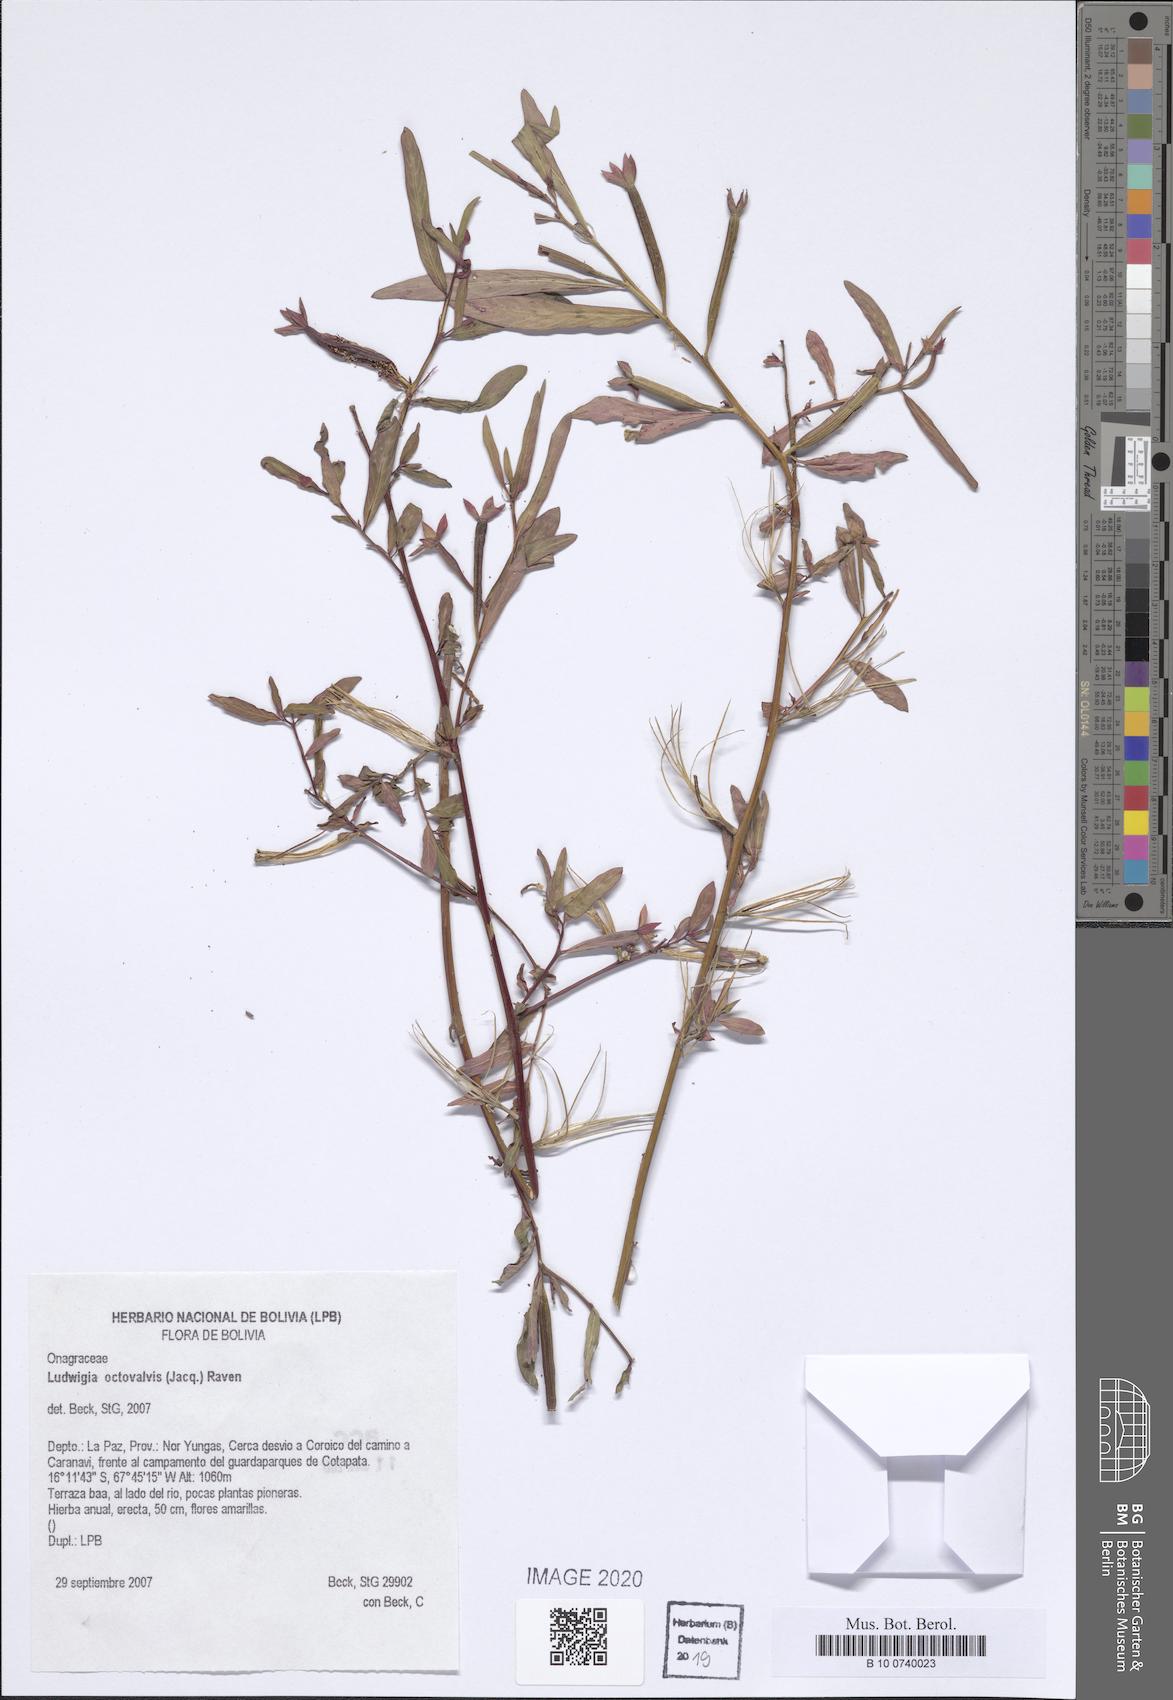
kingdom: Plantae
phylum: Tracheophyta
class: Magnoliopsida
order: Myrtales
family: Onagraceae
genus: Ludwigia
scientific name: Ludwigia octovalvis
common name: Water-primrose
